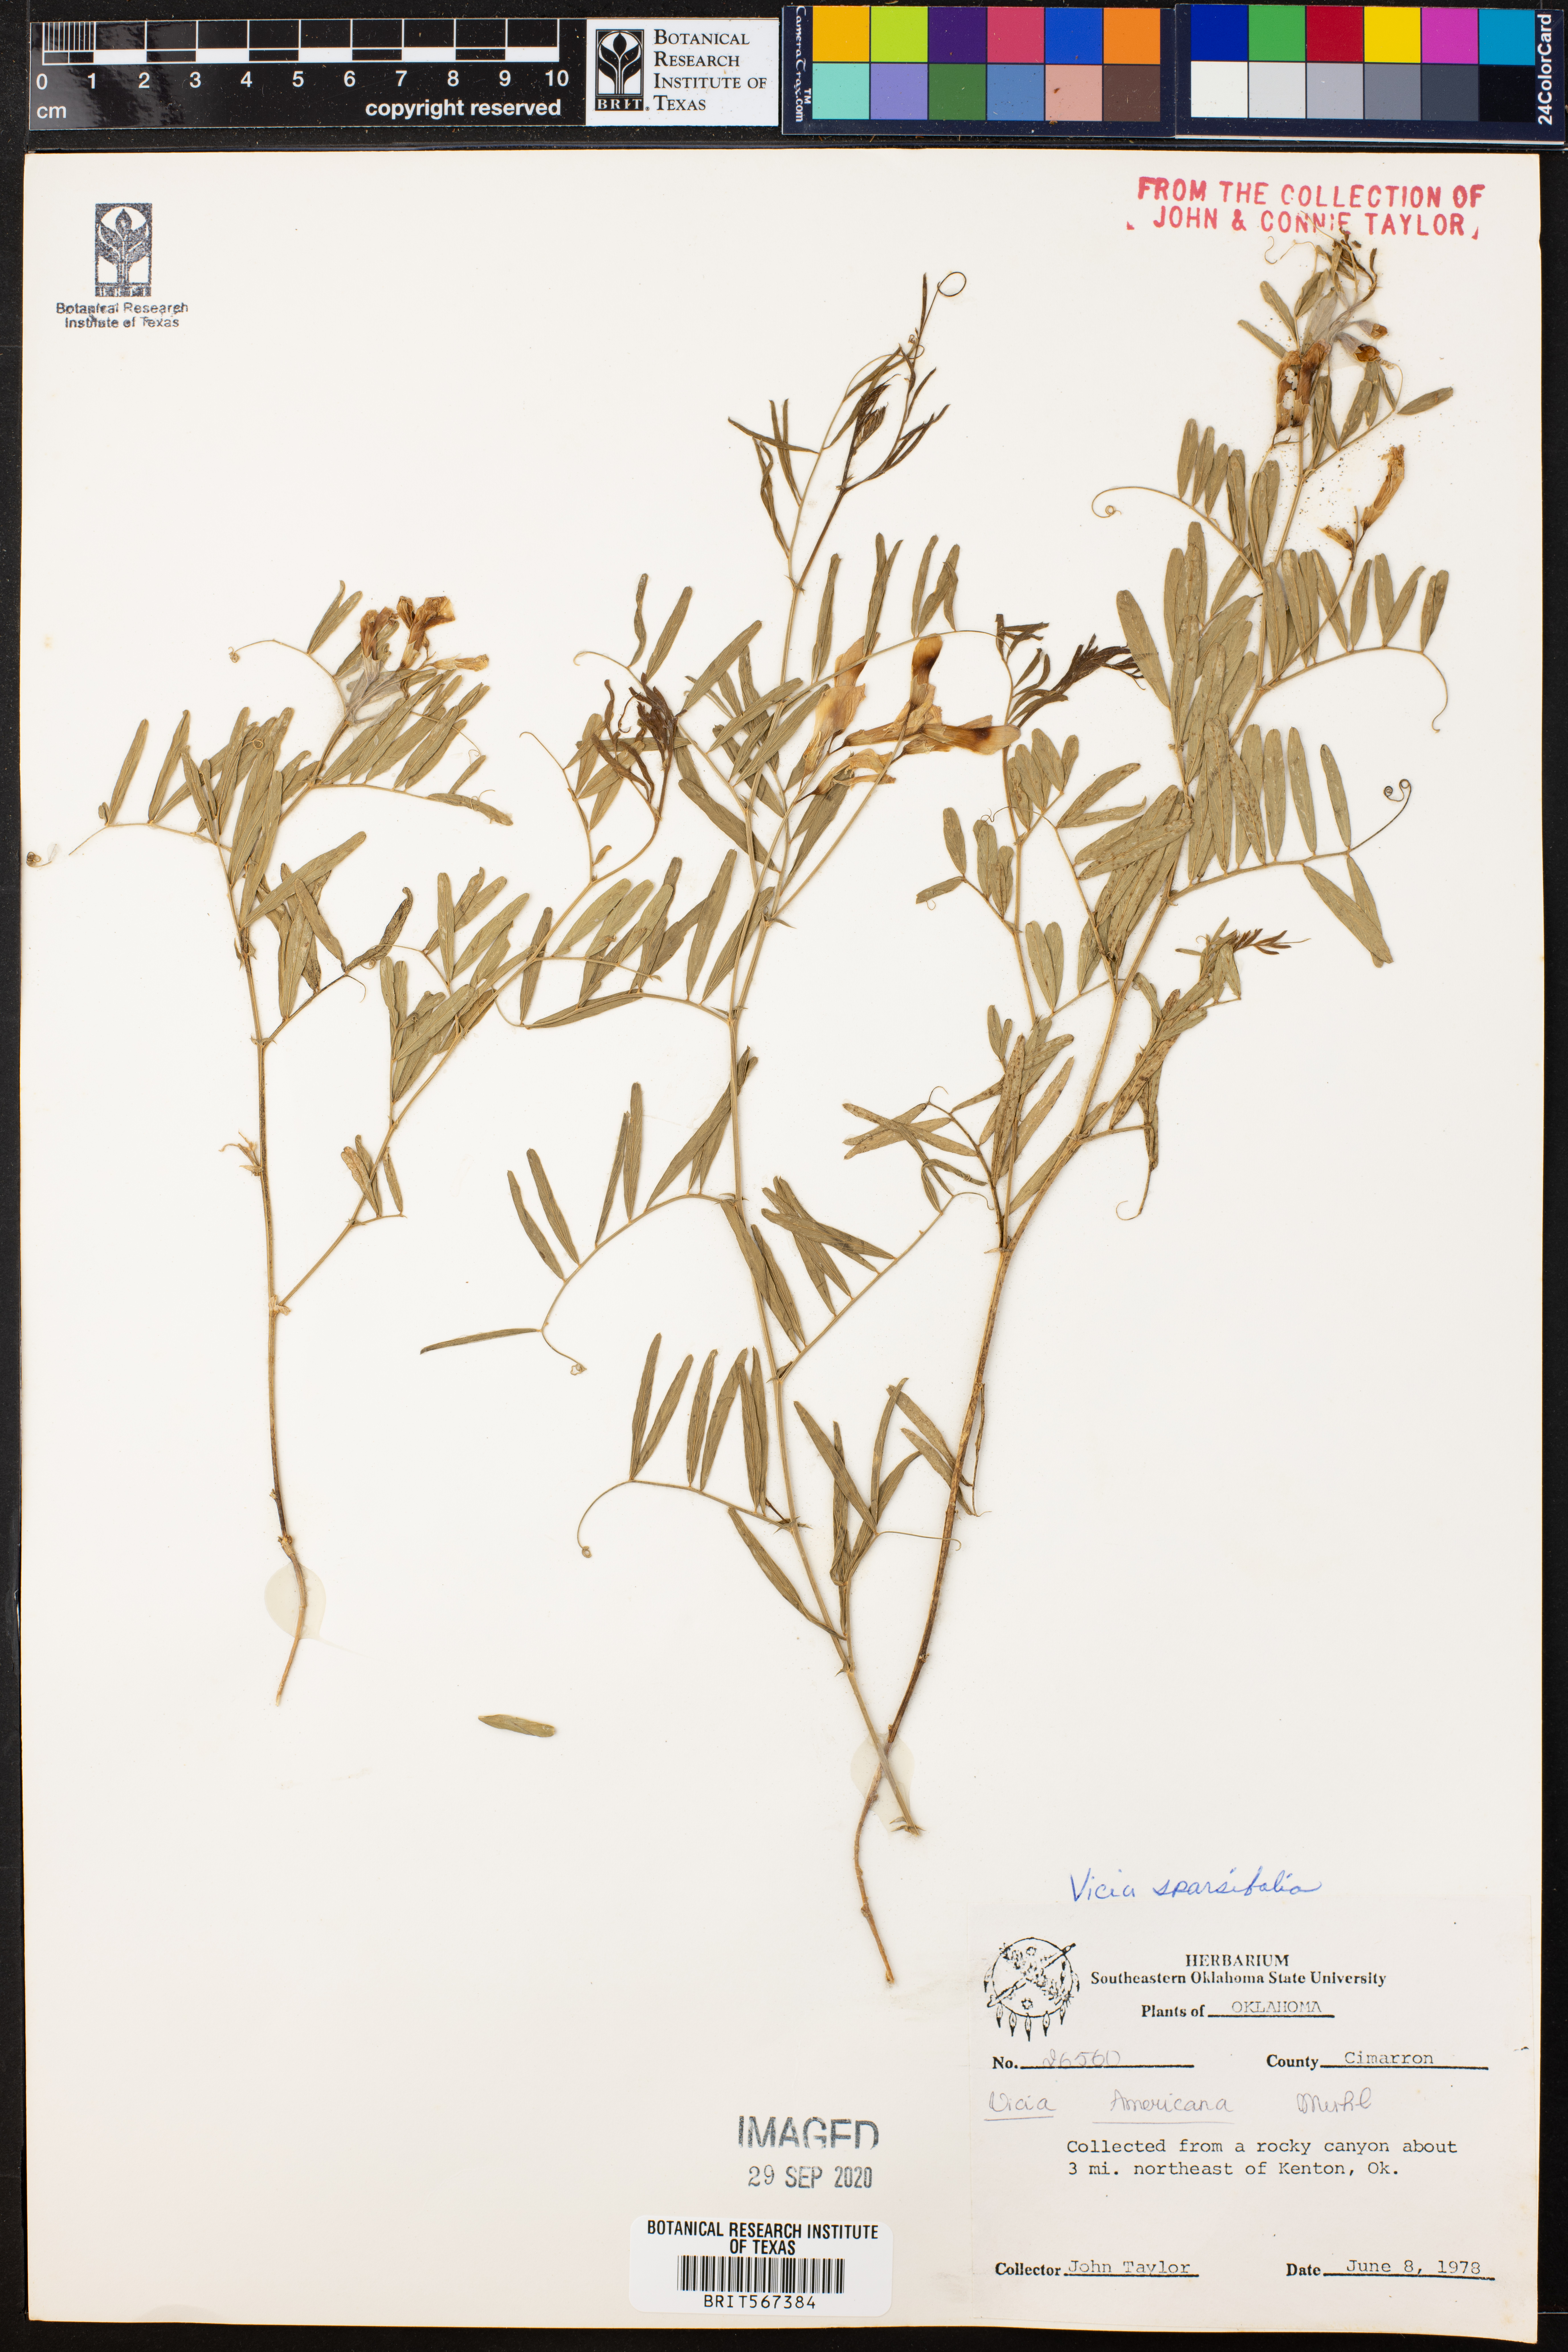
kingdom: Plantae
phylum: Tracheophyta
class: Magnoliopsida
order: Fabales
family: Fabaceae
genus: Vicia
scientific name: Vicia americana
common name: American vetch
